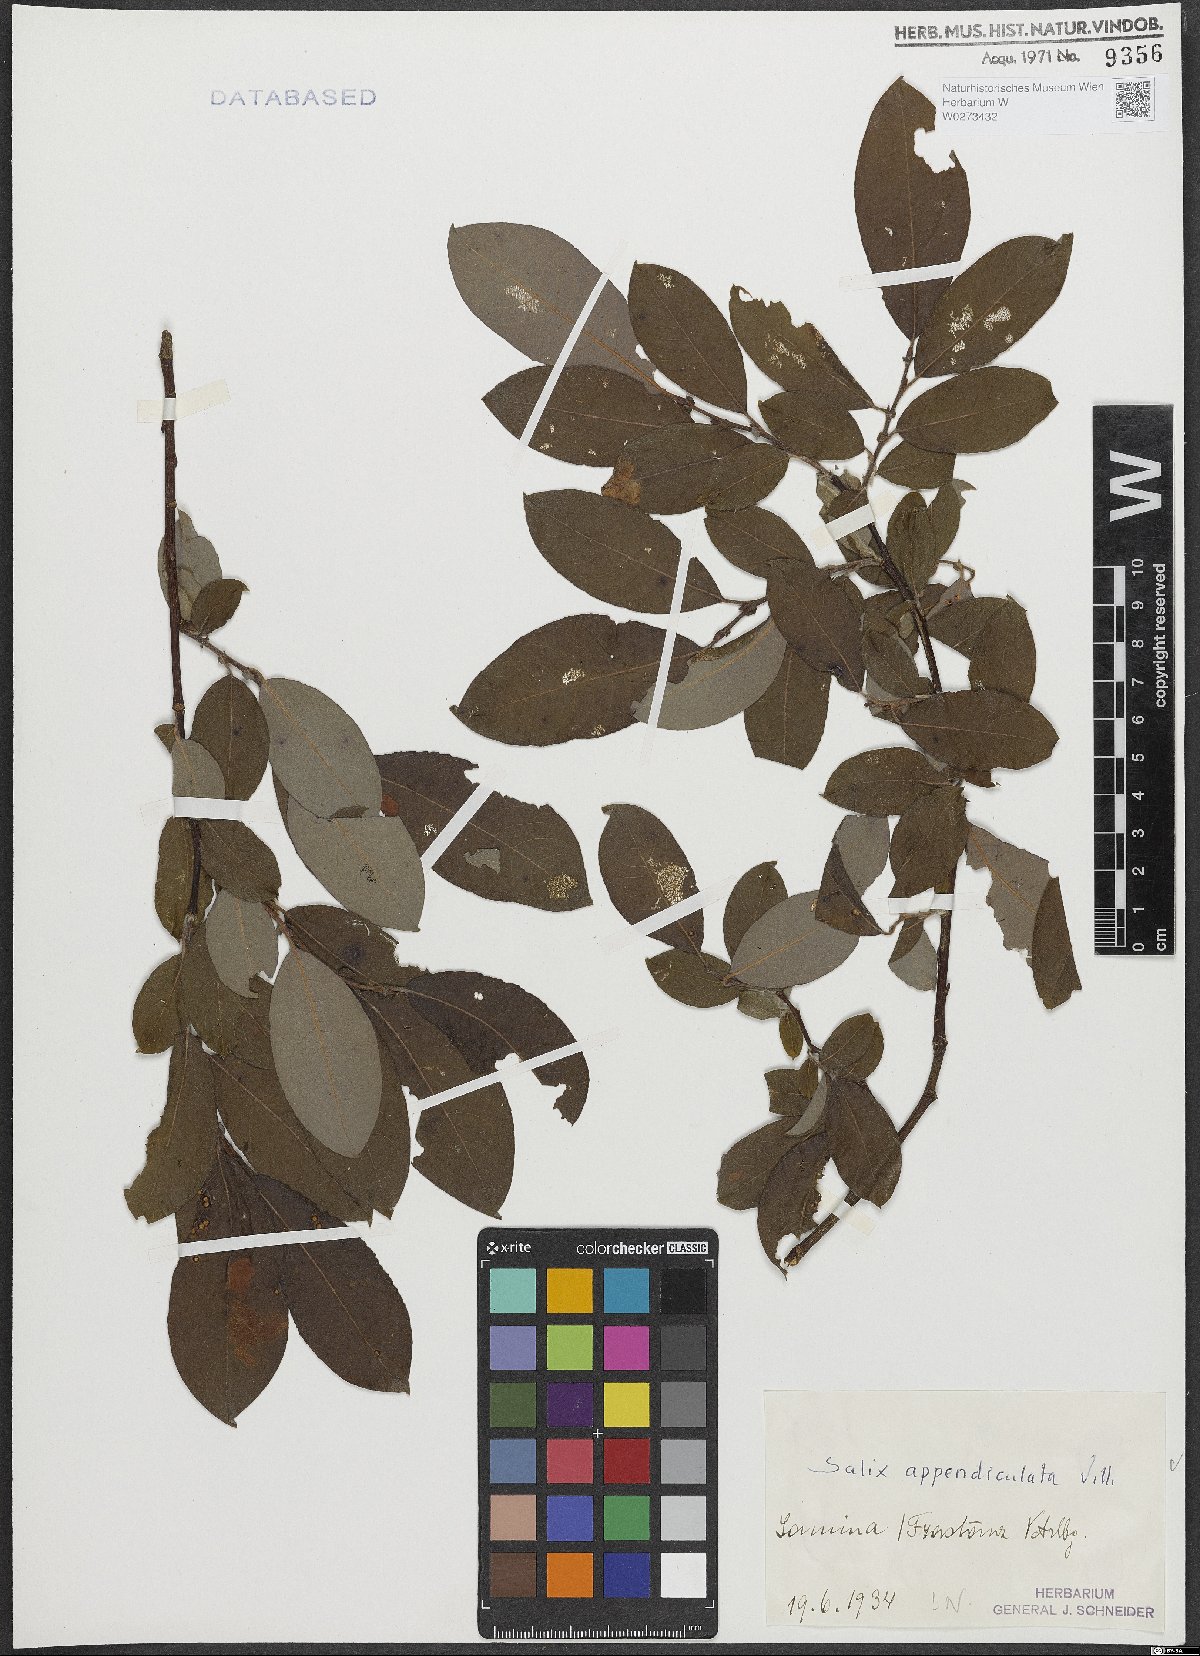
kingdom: Plantae
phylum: Tracheophyta
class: Magnoliopsida
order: Malpighiales
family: Salicaceae
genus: Salix
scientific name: Salix appendiculata
